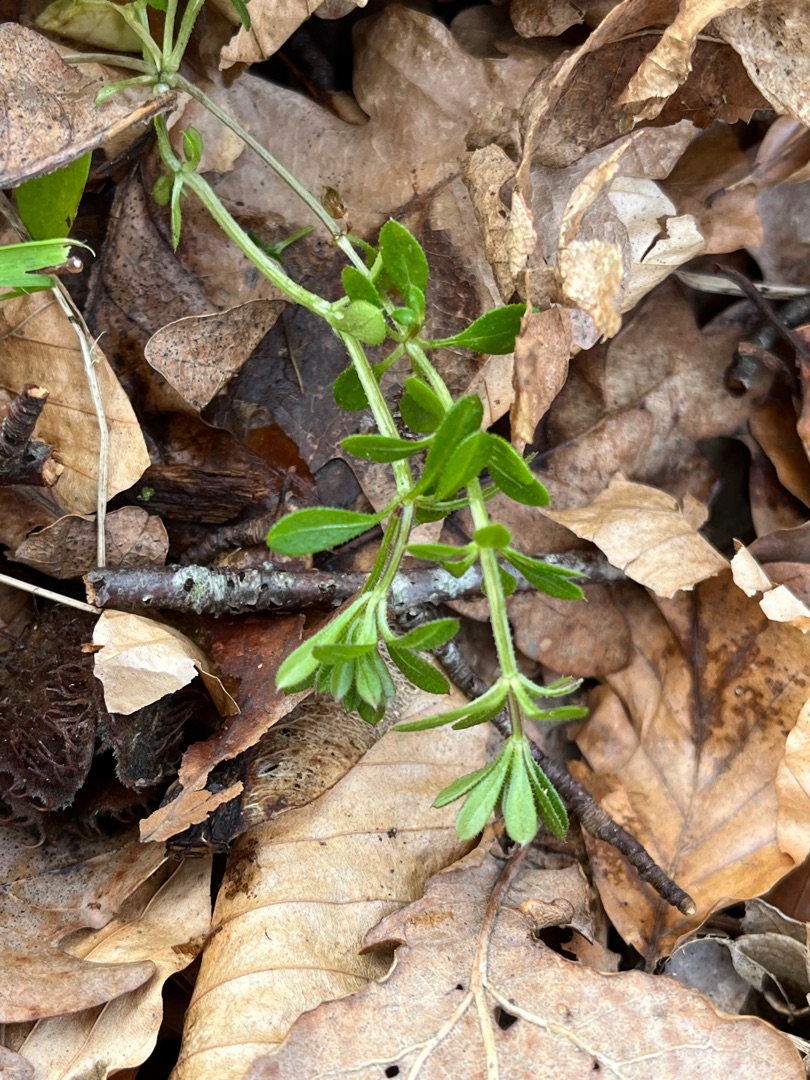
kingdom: Plantae
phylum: Tracheophyta
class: Magnoliopsida
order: Gentianales
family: Rubiaceae
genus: Galium
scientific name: Galium aparine
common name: Burre-snerre
